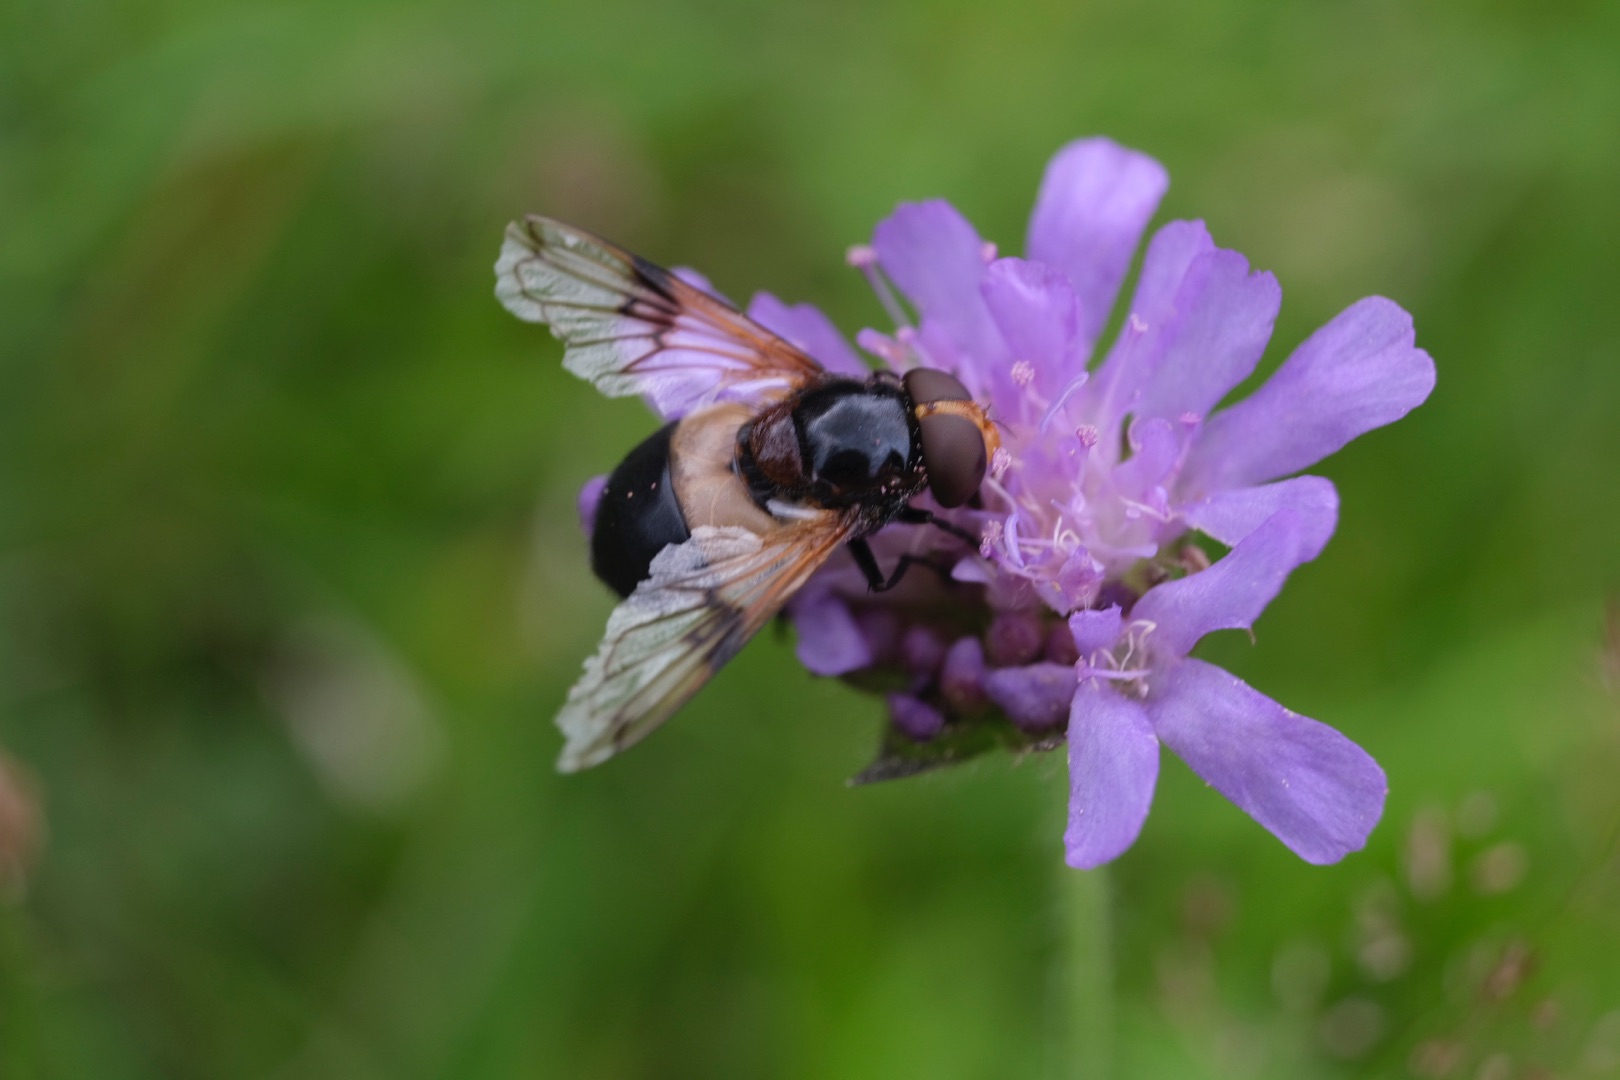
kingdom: Animalia
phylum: Arthropoda
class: Insecta
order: Diptera
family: Syrphidae
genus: Volucella
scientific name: Volucella pellucens
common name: Hvidbåndet humlesvirreflue
